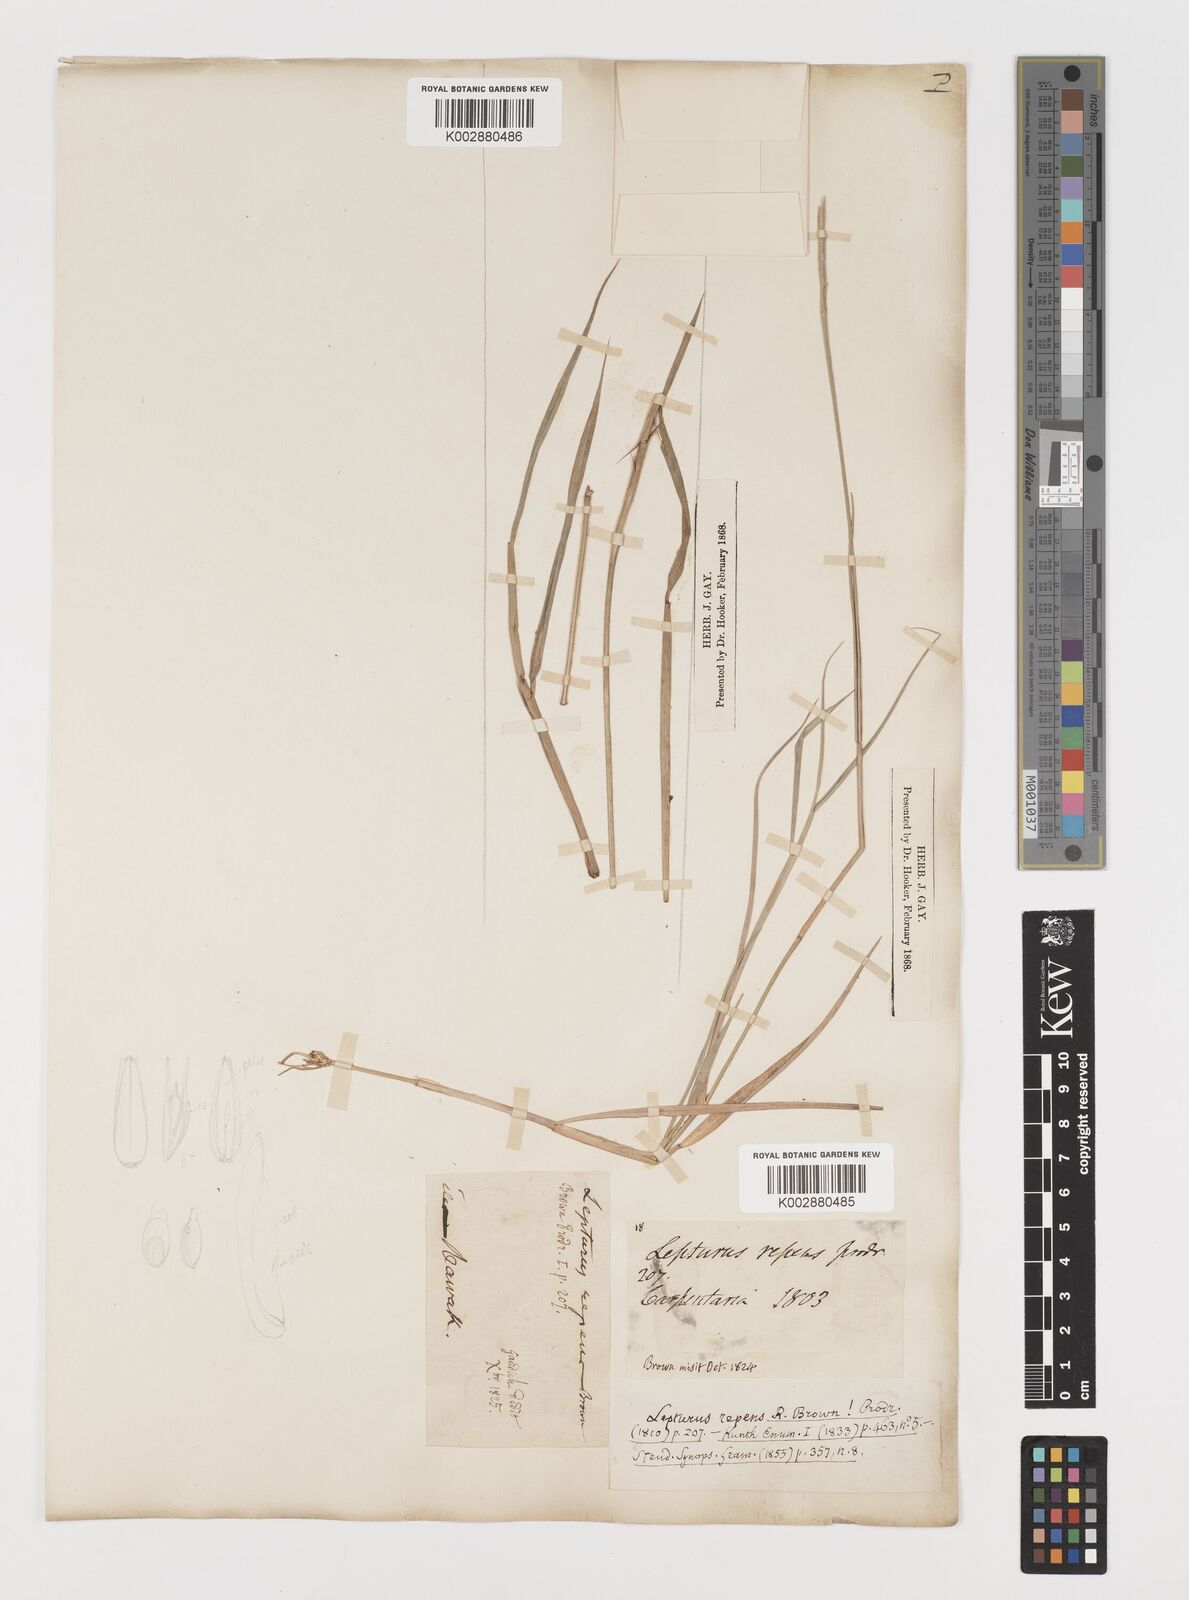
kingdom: Plantae
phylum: Tracheophyta
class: Liliopsida
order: Poales
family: Poaceae
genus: Lepturus
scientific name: Lepturus repens
